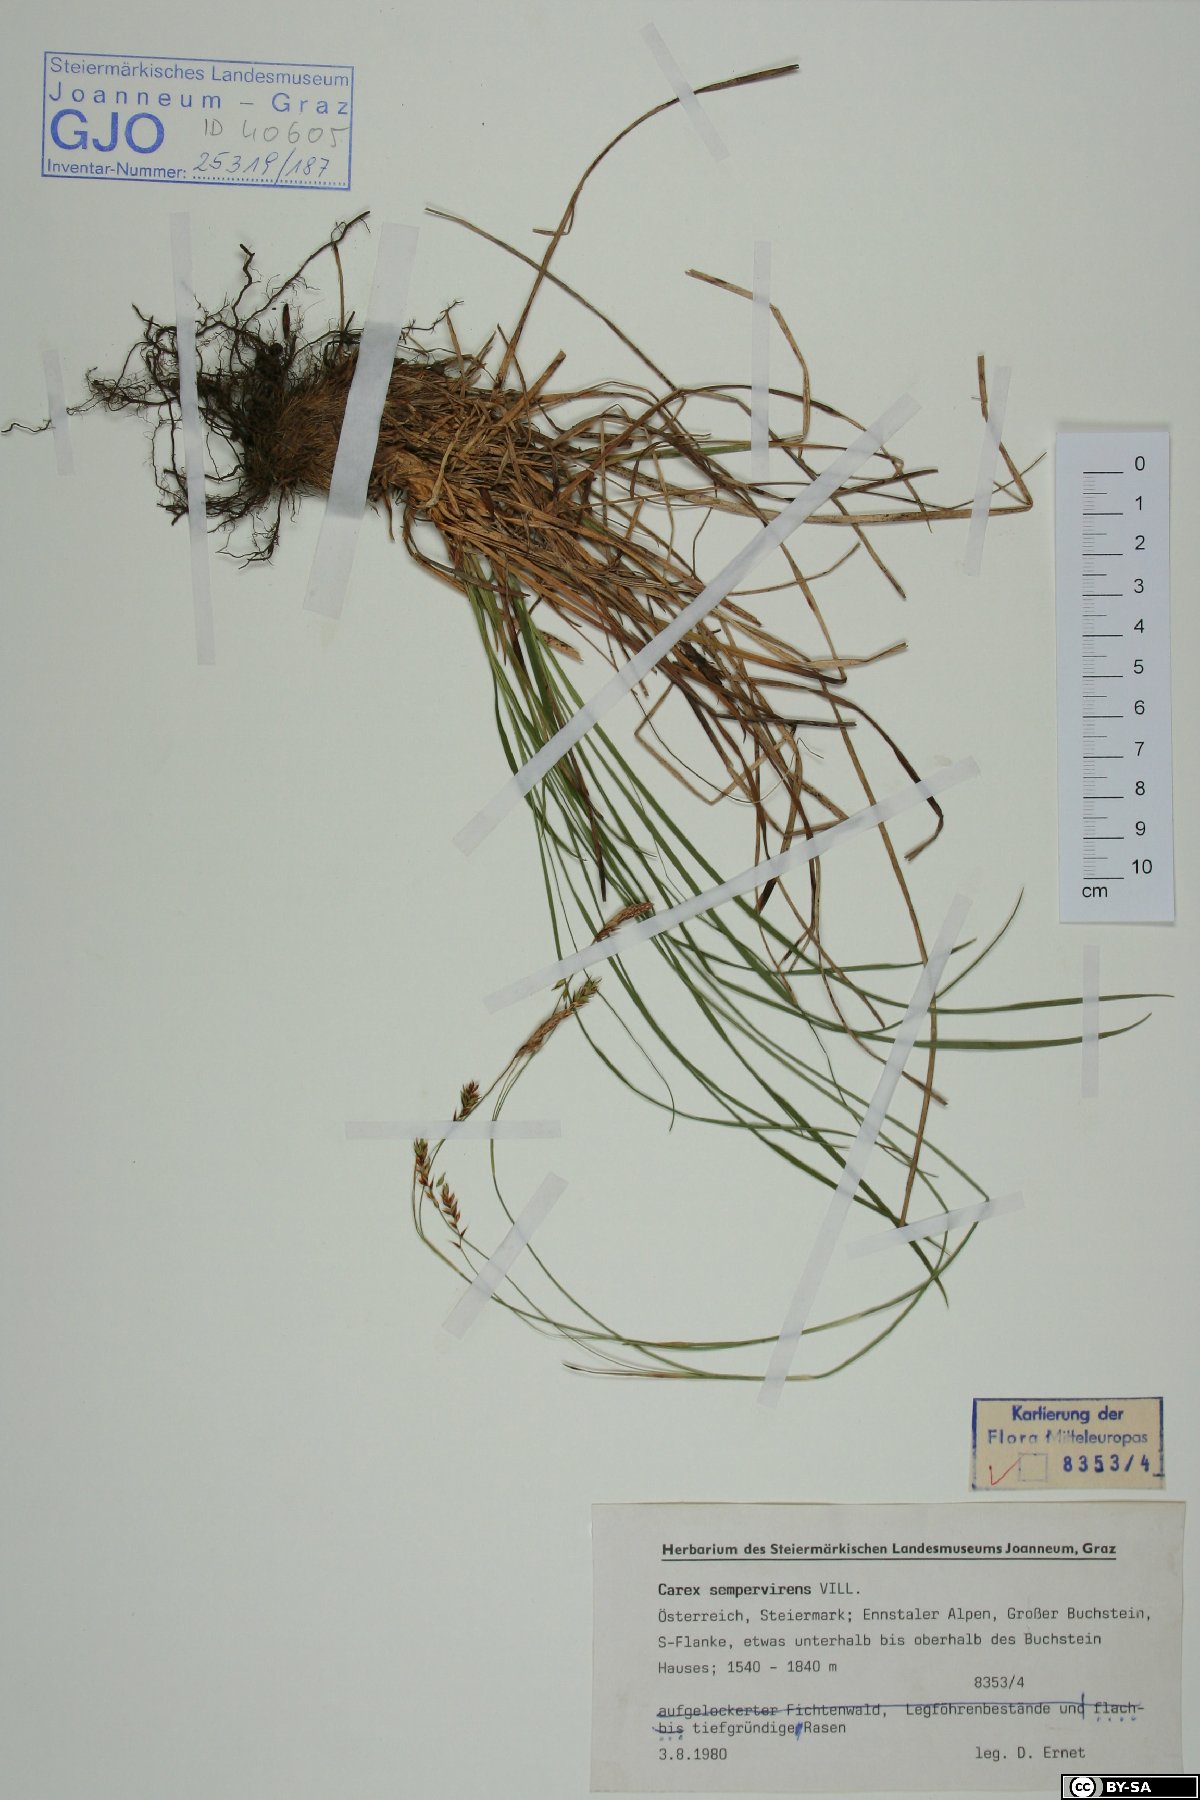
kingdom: Plantae
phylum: Tracheophyta
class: Liliopsida
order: Poales
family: Cyperaceae
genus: Carex
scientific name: Carex sempervirens
